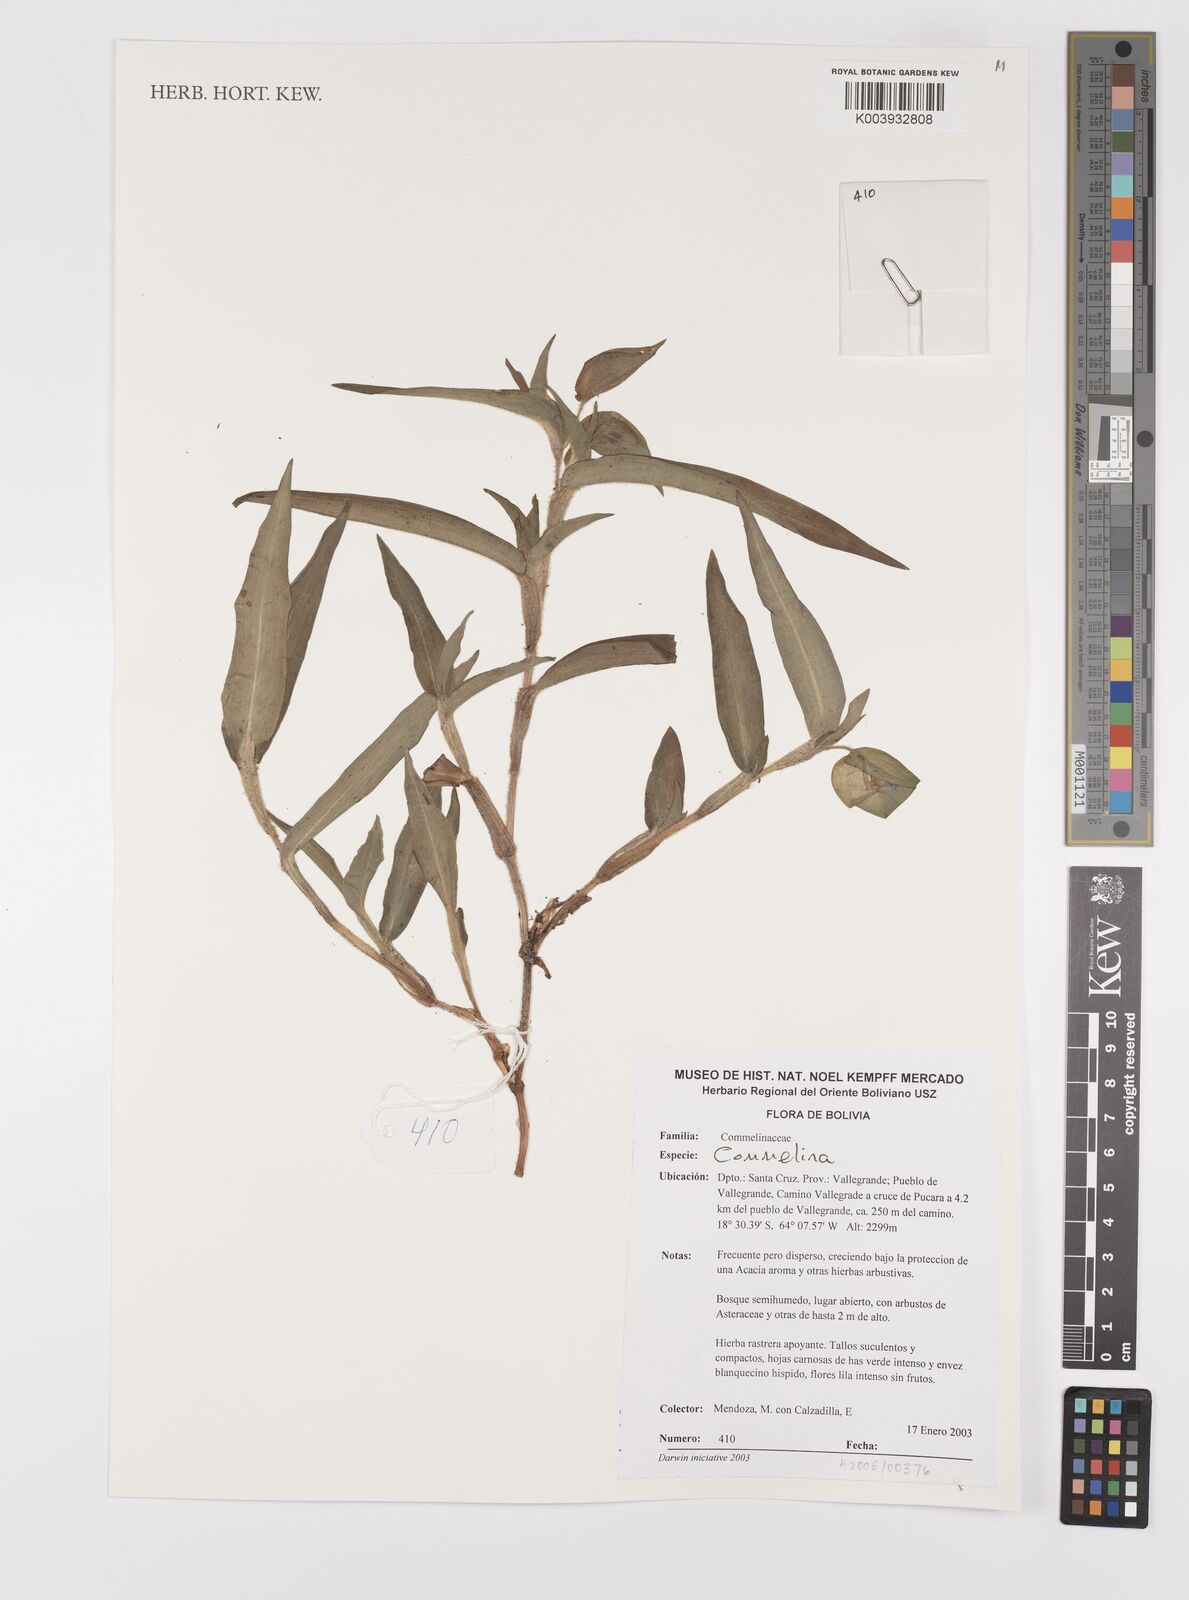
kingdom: Plantae
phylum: Tracheophyta
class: Liliopsida
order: Commelinales
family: Commelinaceae
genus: Commelina
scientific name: Commelina
